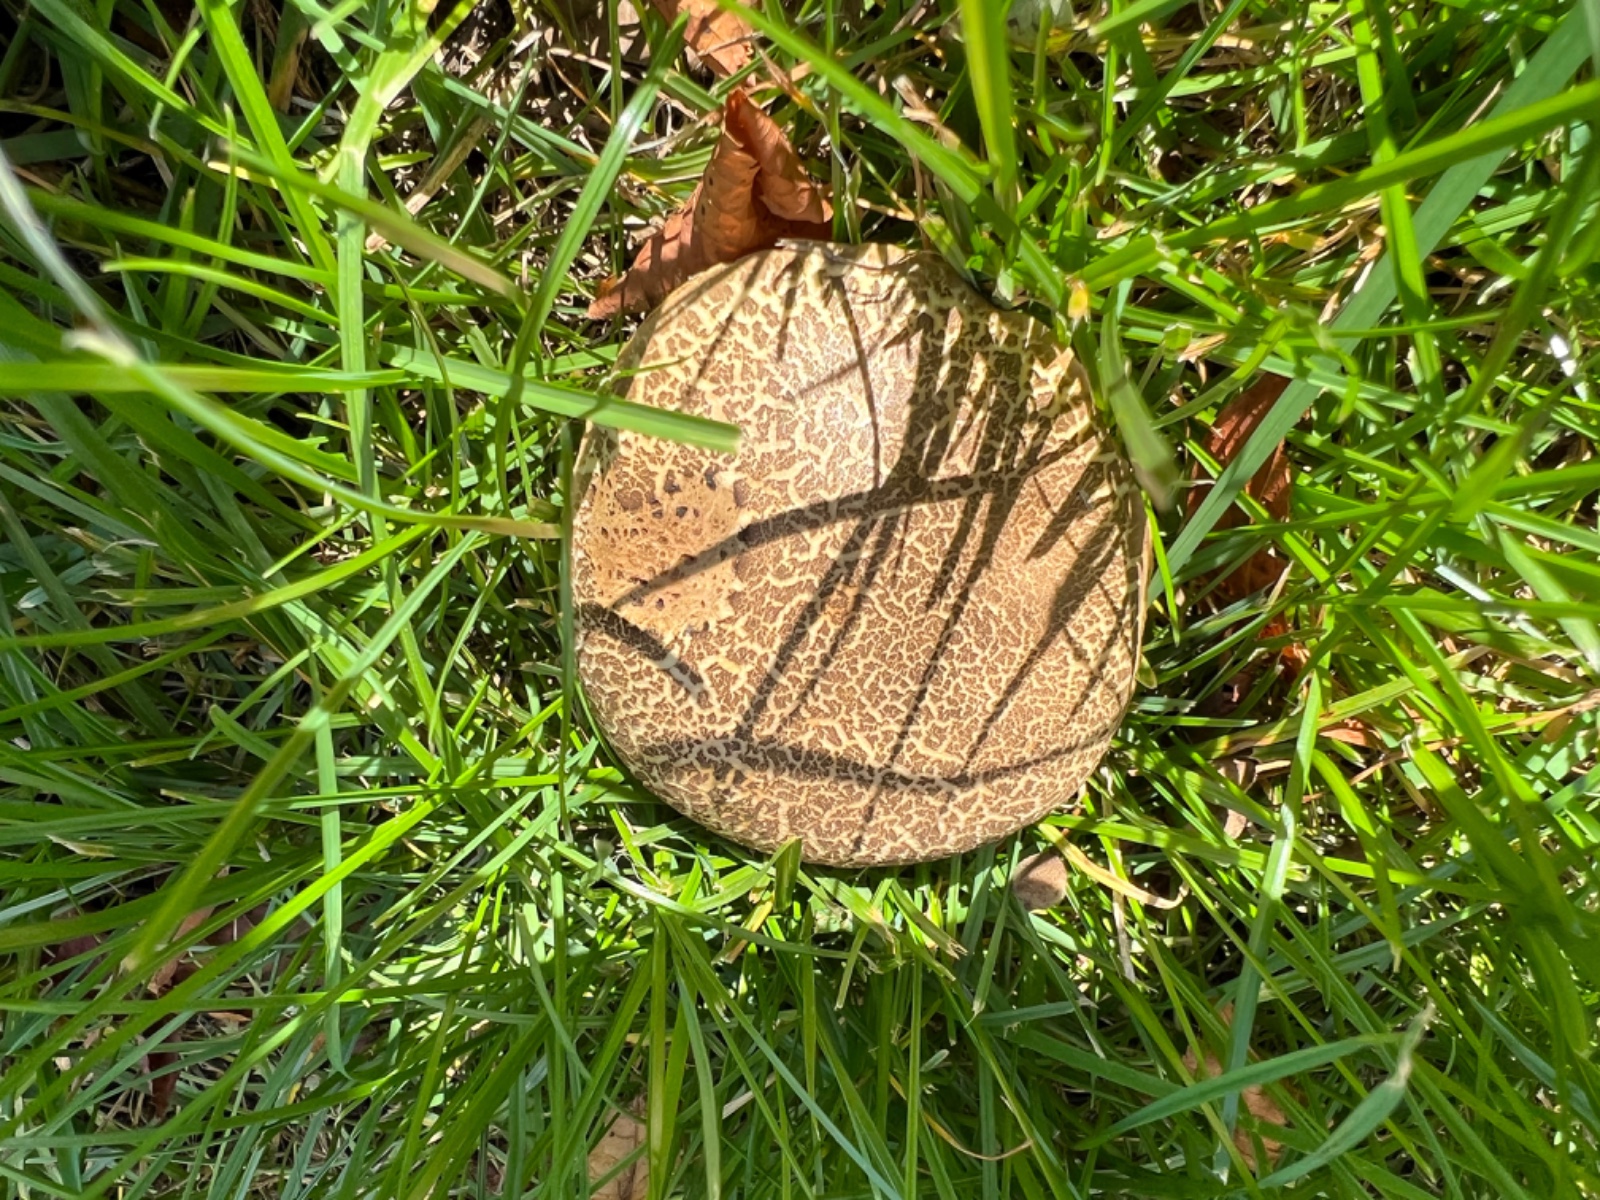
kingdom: Fungi
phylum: Basidiomycota
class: Agaricomycetes
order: Boletales
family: Boletaceae
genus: Xerocomellus
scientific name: Xerocomellus
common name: dværgrørhat
